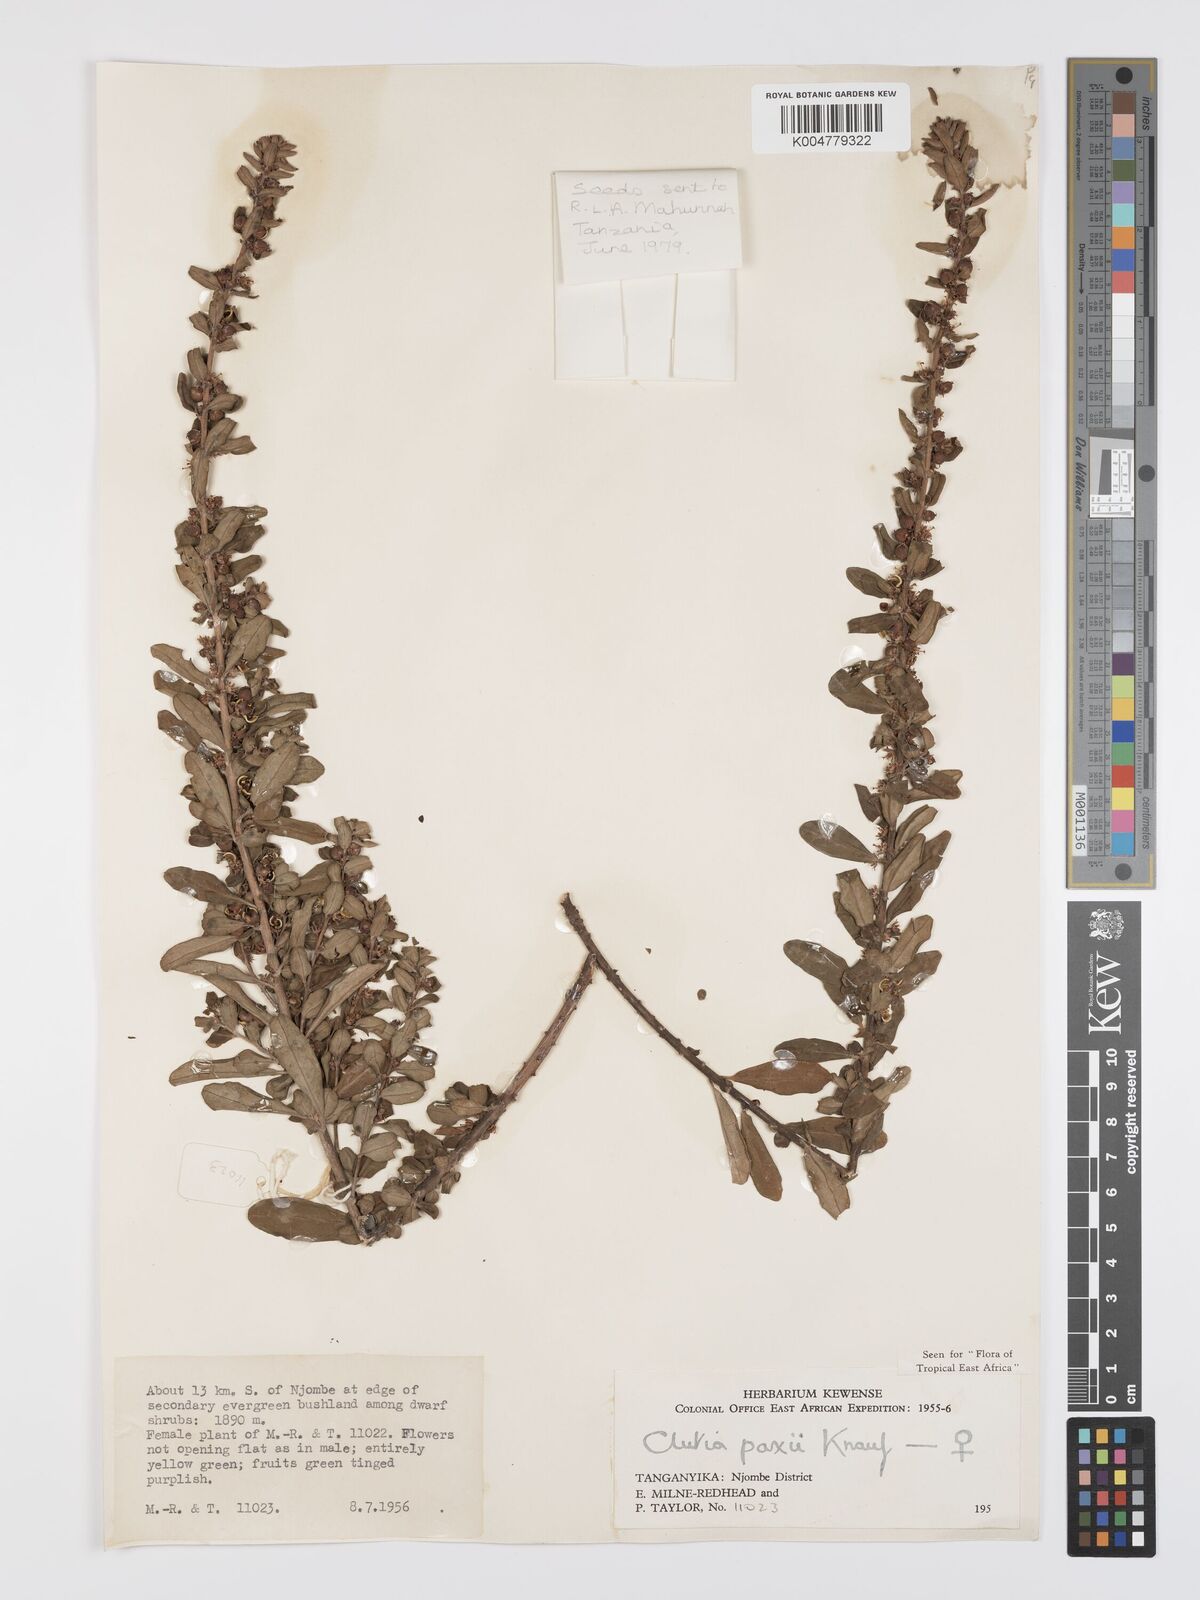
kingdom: Plantae
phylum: Tracheophyta
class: Magnoliopsida
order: Malpighiales
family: Peraceae
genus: Clutia
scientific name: Clutia paxii
